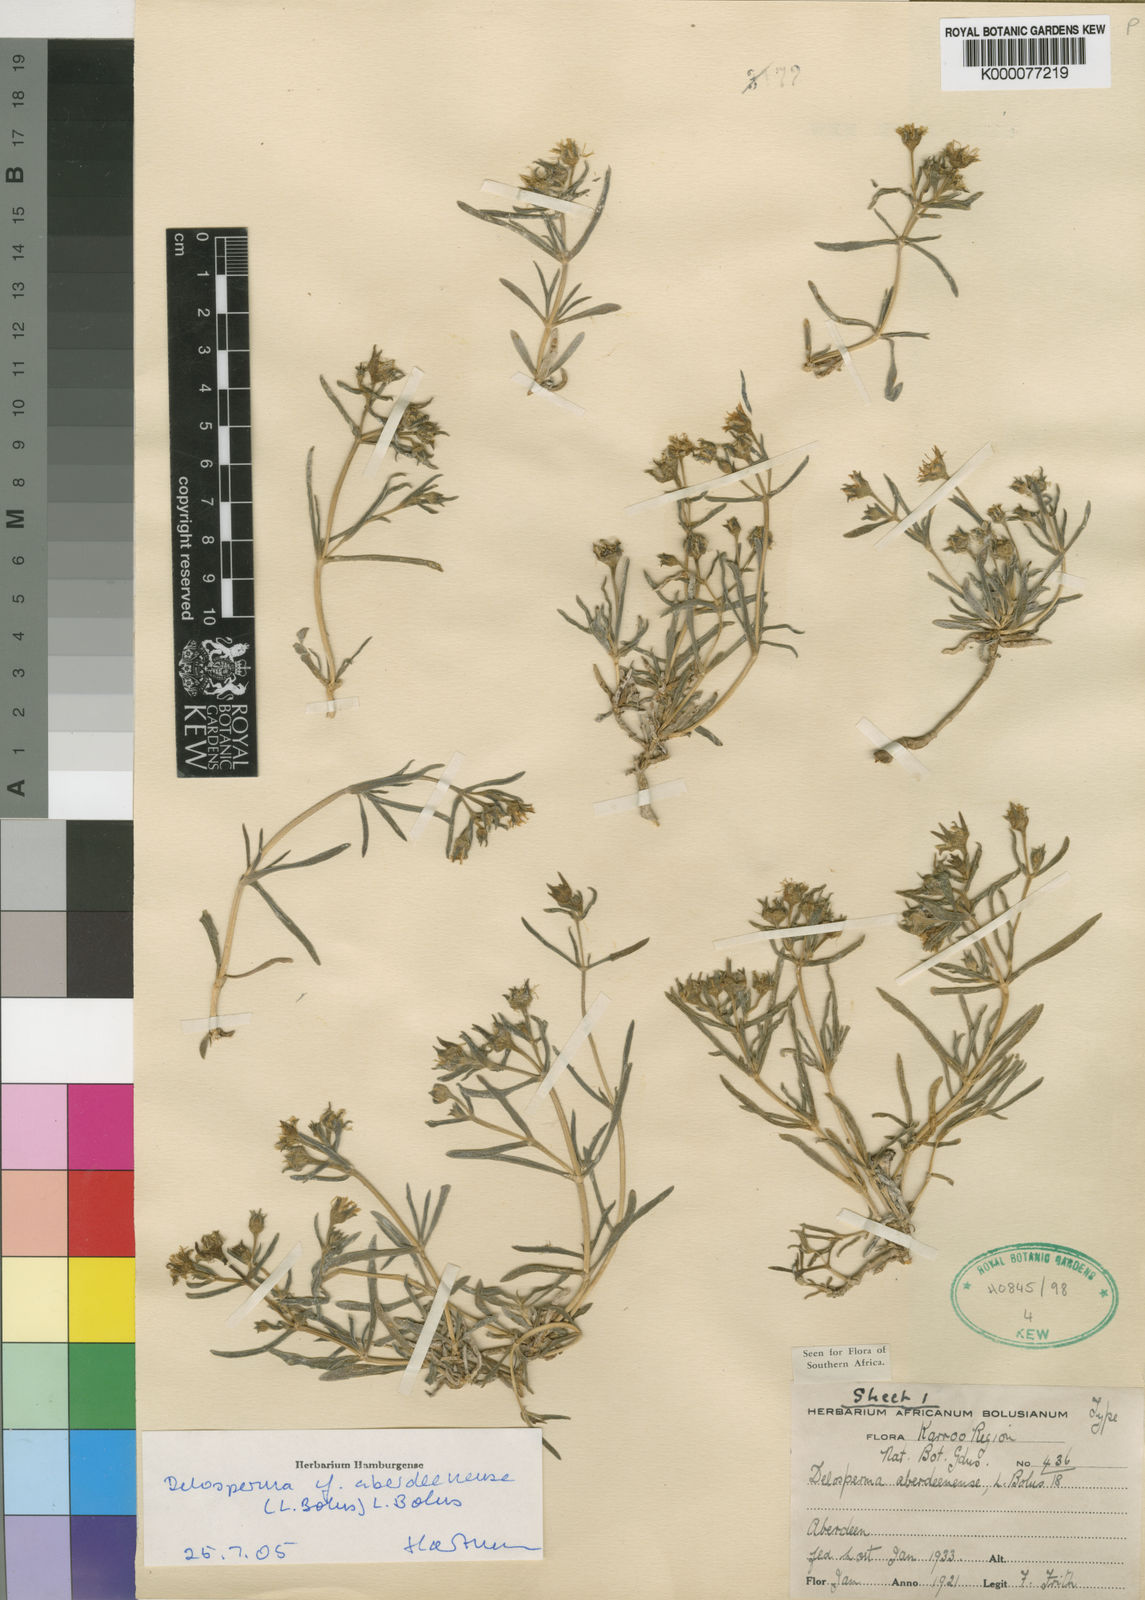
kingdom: Plantae
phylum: Tracheophyta
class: Magnoliopsida
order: Caryophyllales
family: Aizoaceae
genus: Delosperma
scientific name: Delosperma aberdeenense
